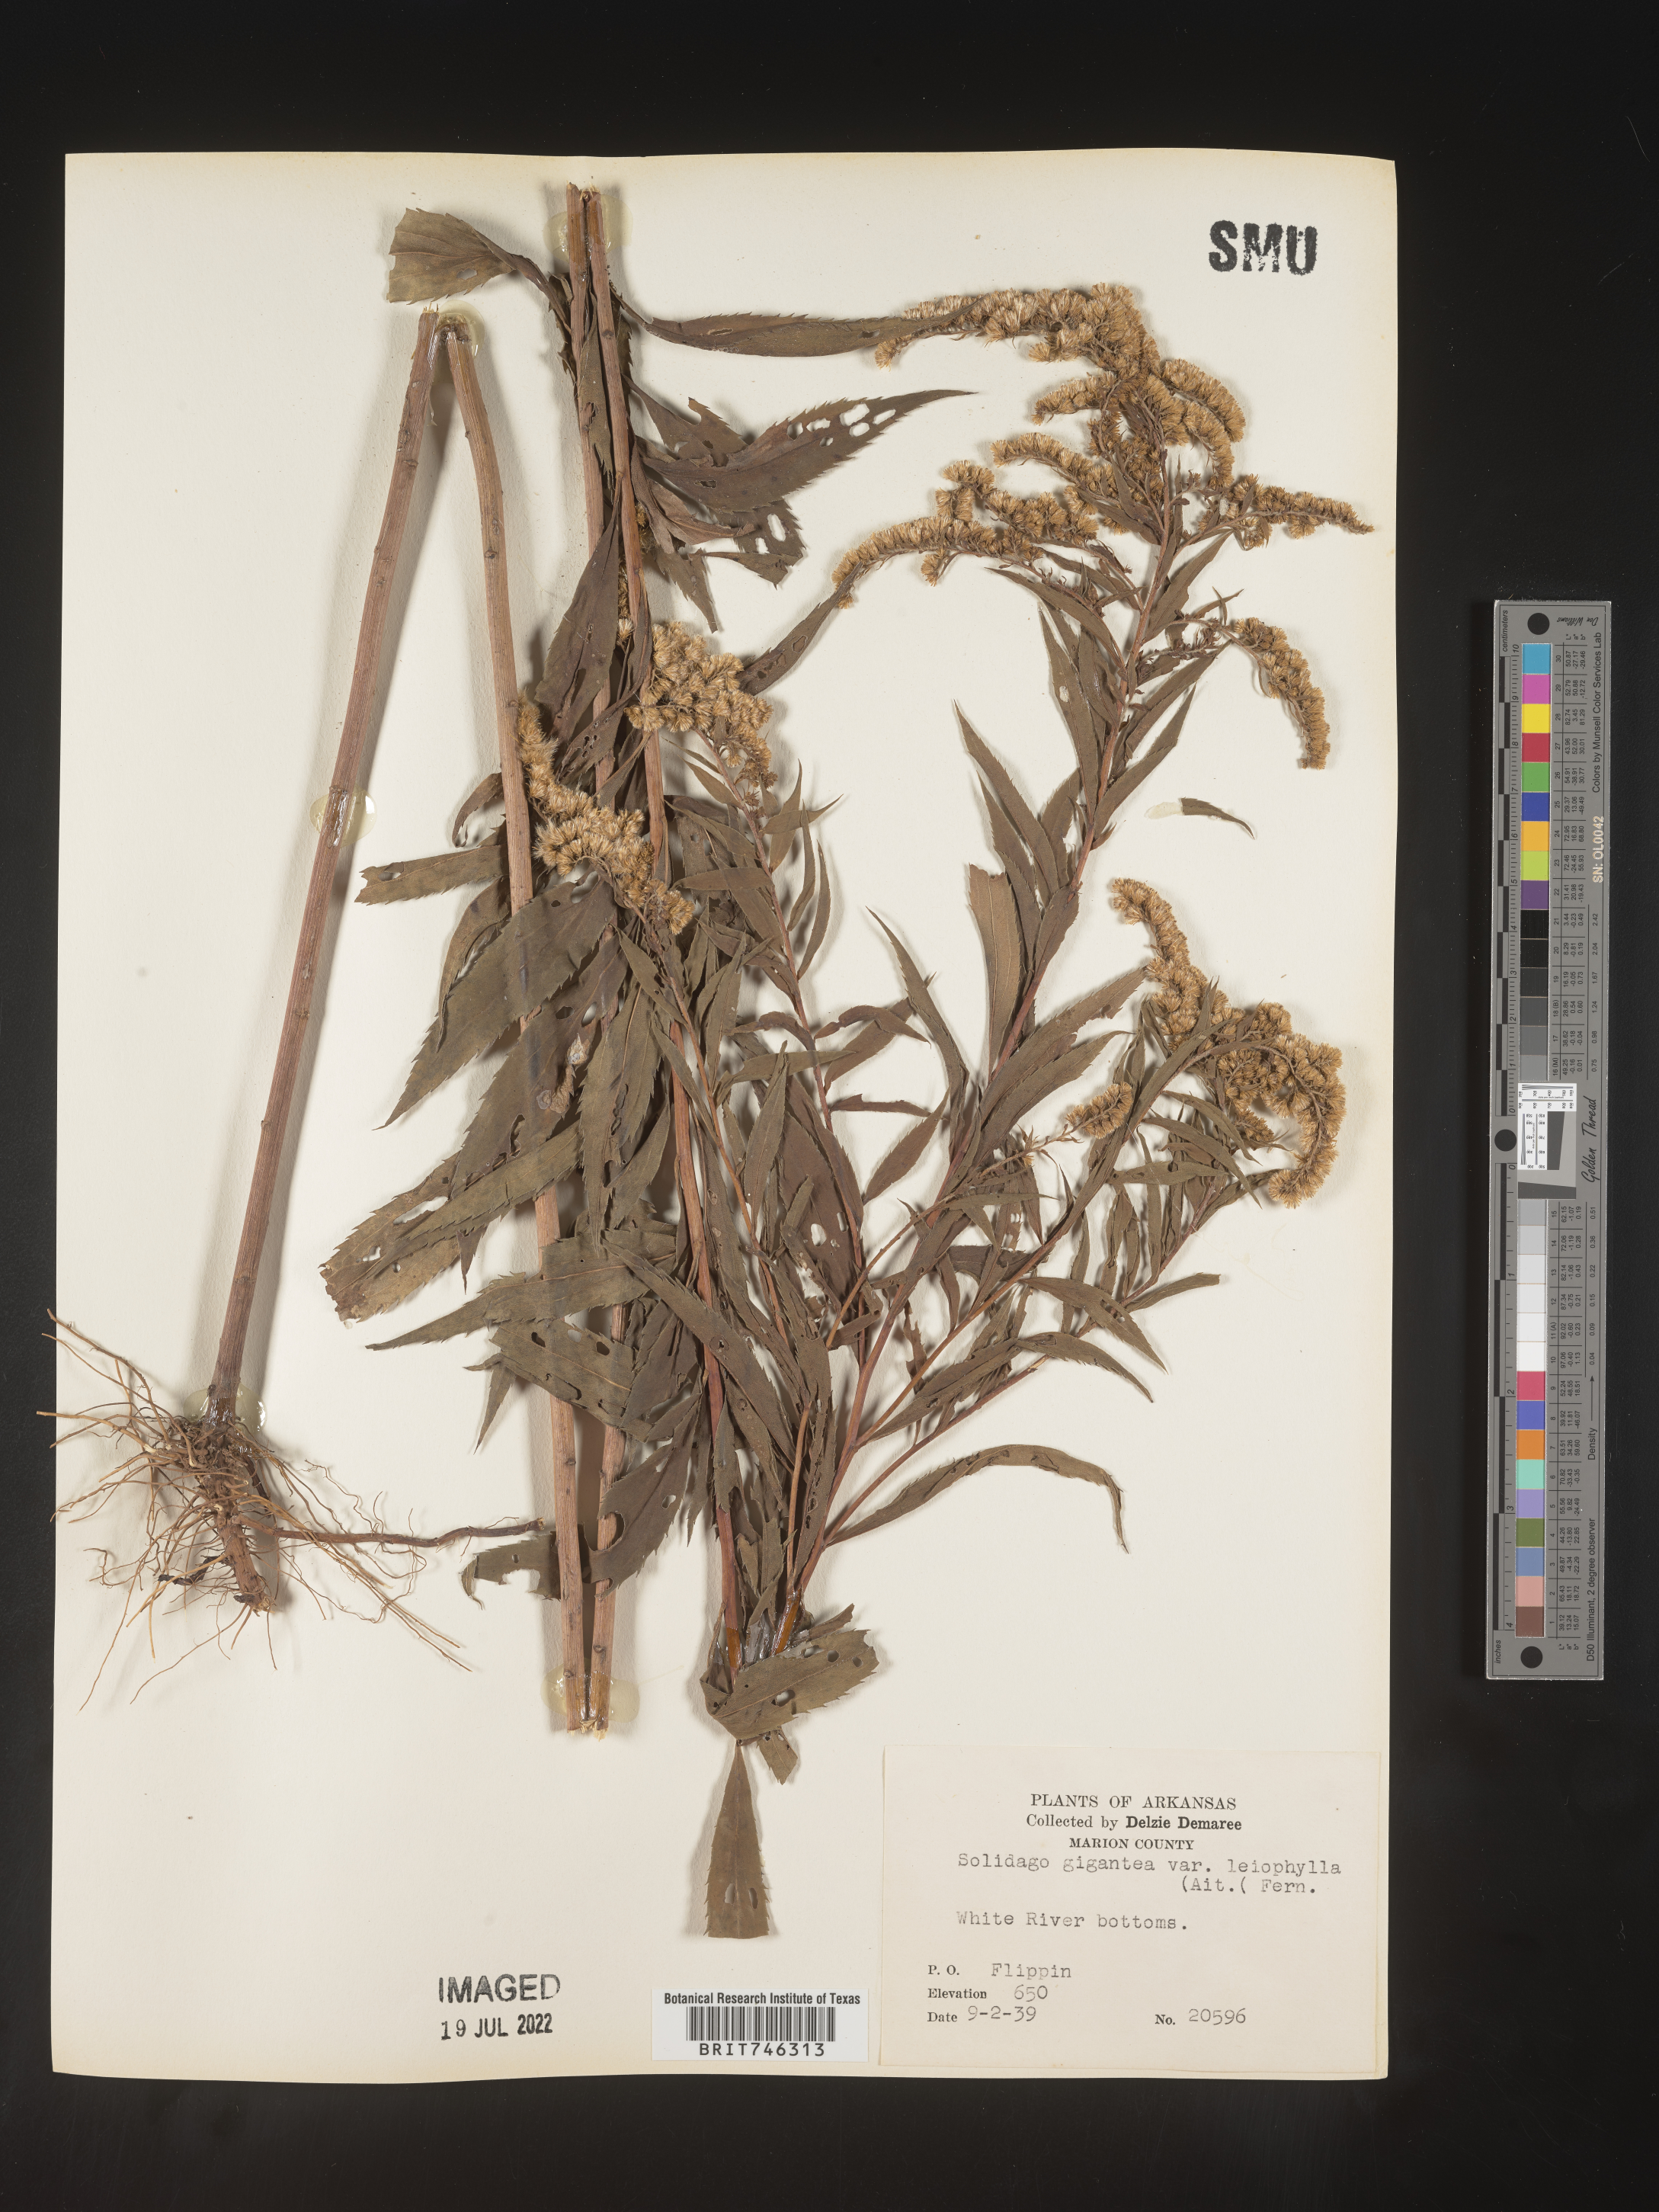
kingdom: Plantae
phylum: Tracheophyta
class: Magnoliopsida
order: Asterales
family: Asteraceae
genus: Solidago
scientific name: Solidago gigantea
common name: Giant goldenrod
